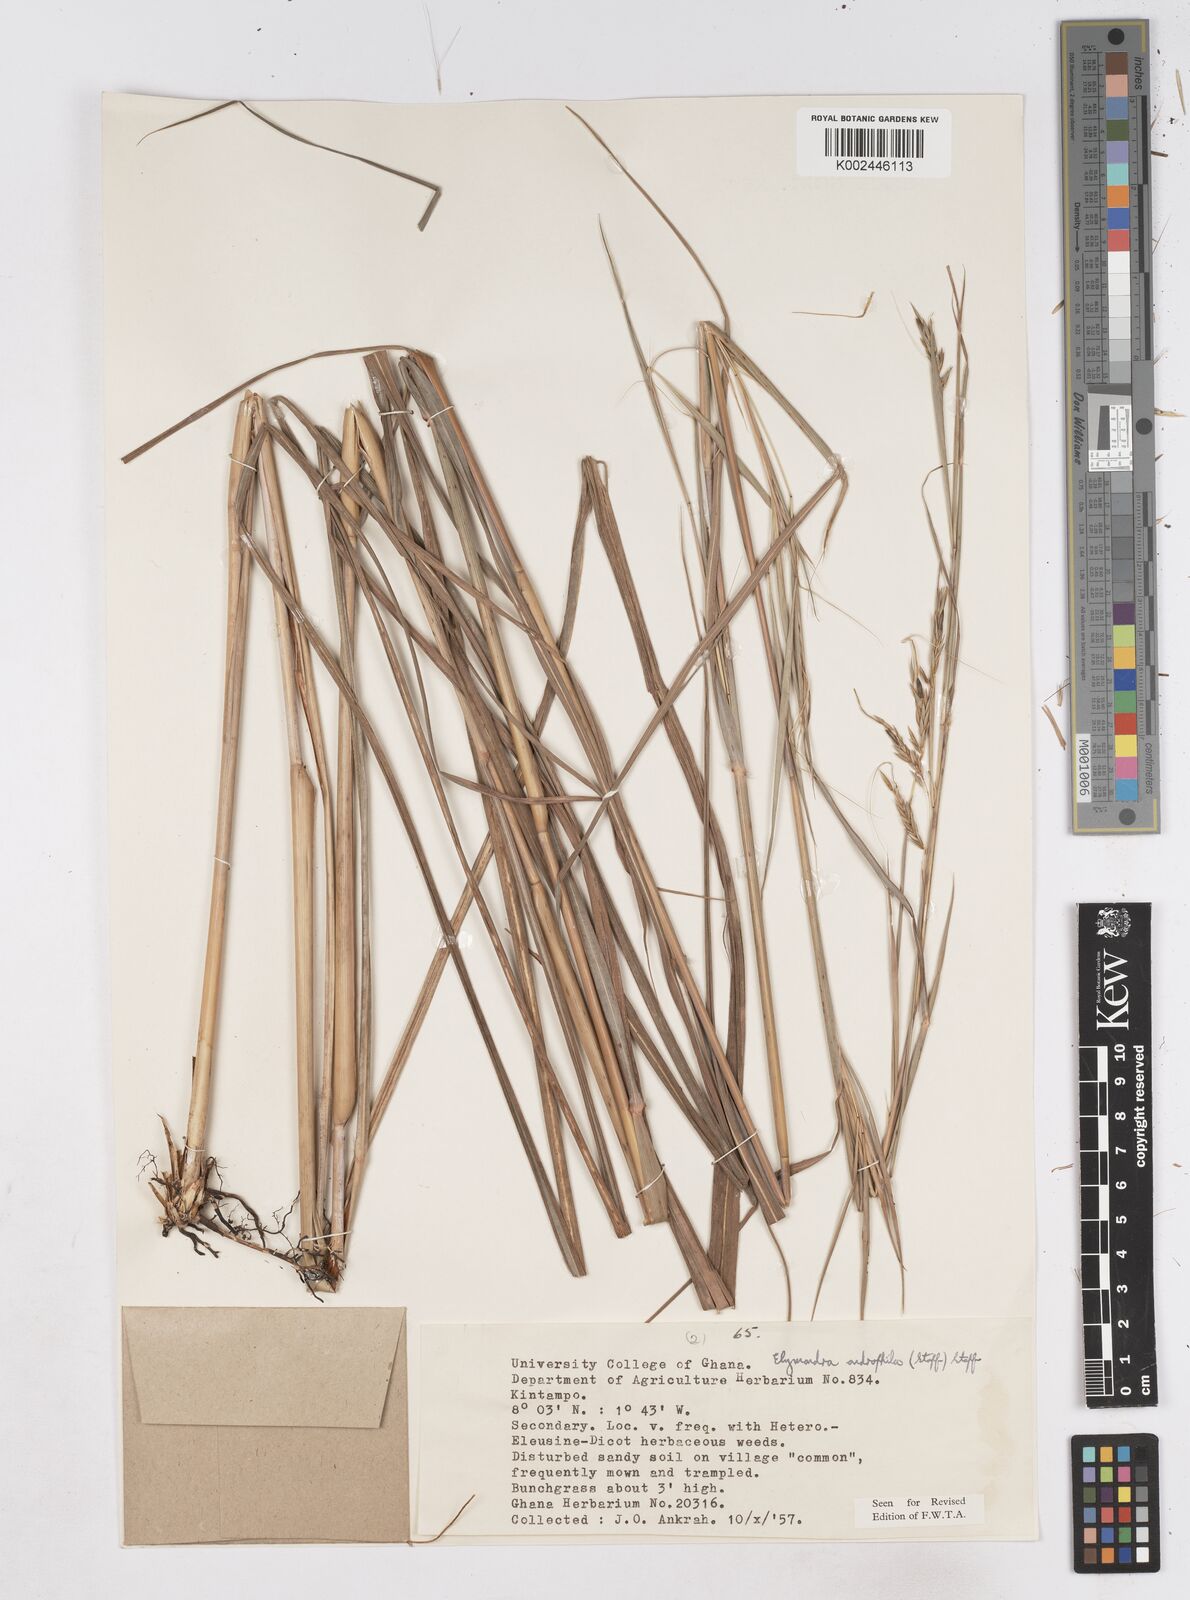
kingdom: Plantae
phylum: Tracheophyta
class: Liliopsida
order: Poales
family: Poaceae
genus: Elymandra
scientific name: Elymandra androphila
